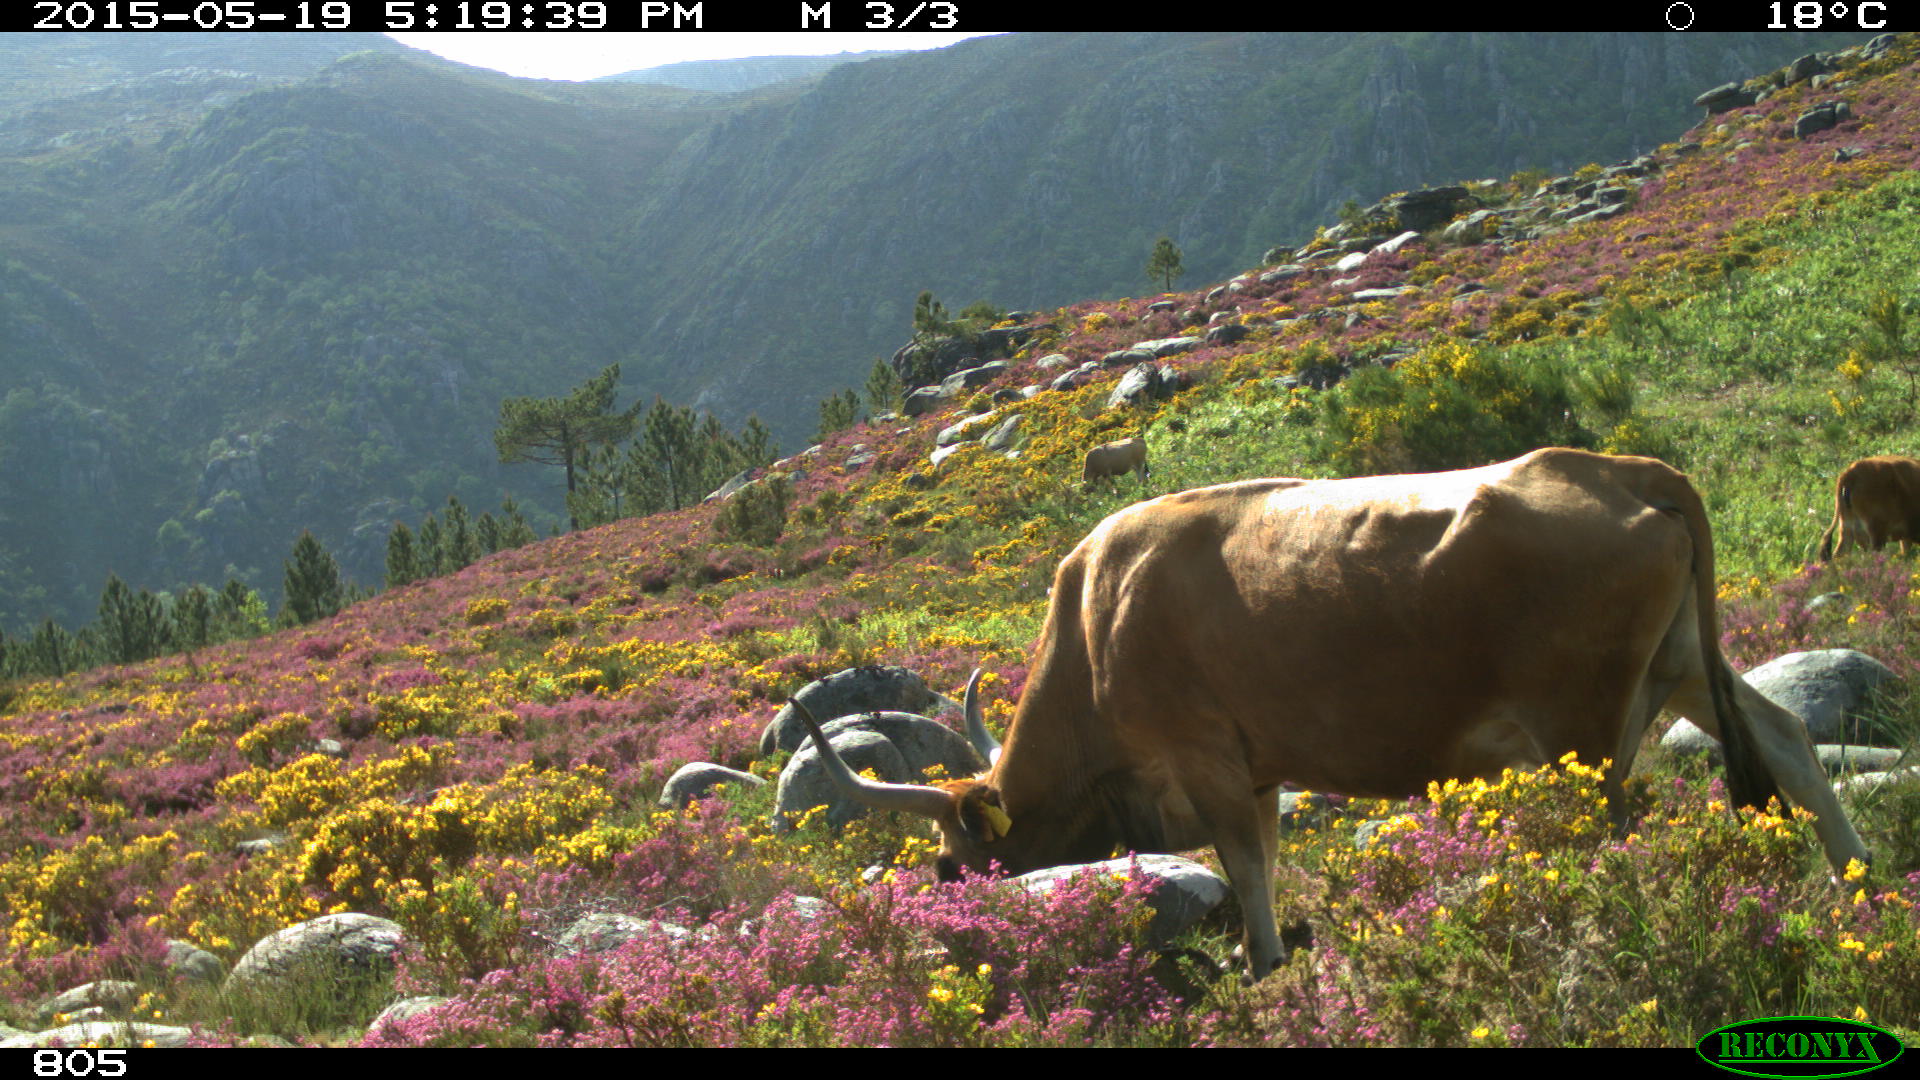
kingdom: Animalia
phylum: Chordata
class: Mammalia
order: Artiodactyla
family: Bovidae
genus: Bos
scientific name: Bos taurus
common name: Domesticated cattle
